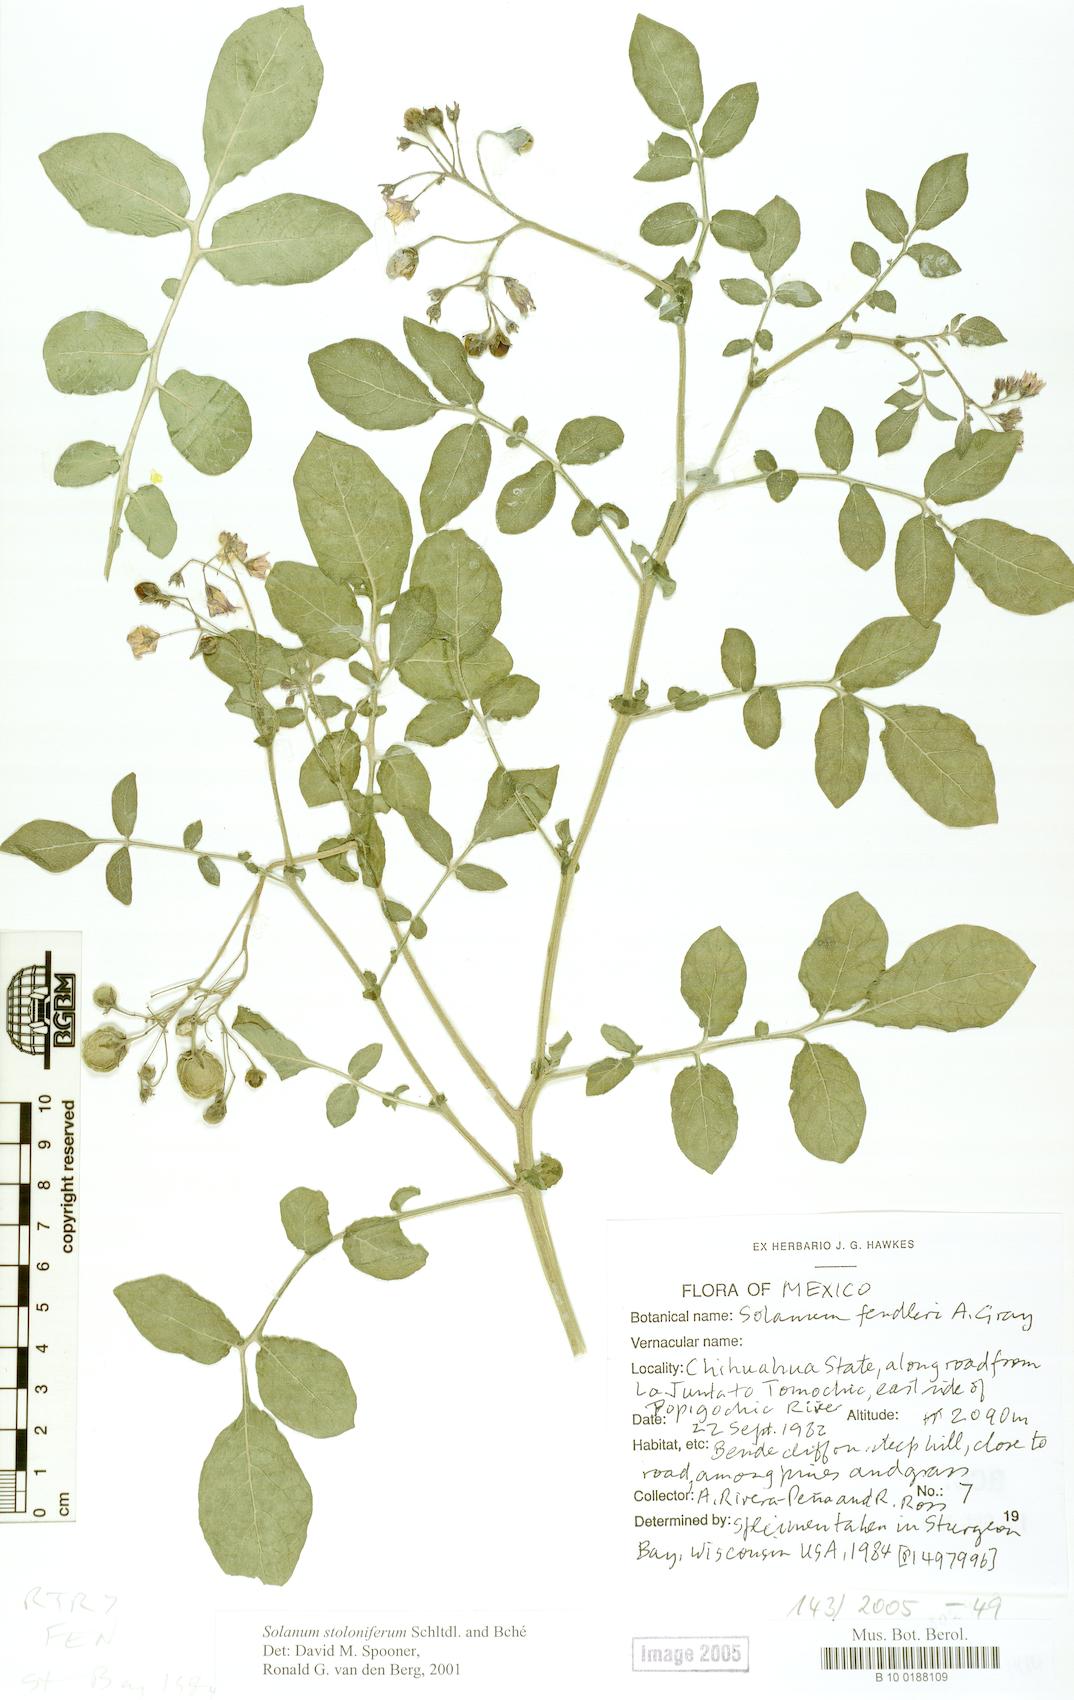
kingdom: Plantae
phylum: Tracheophyta
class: Magnoliopsida
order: Solanales
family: Solanaceae
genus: Solanum
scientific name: Solanum stoloniferum
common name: Fendler's nighshade
